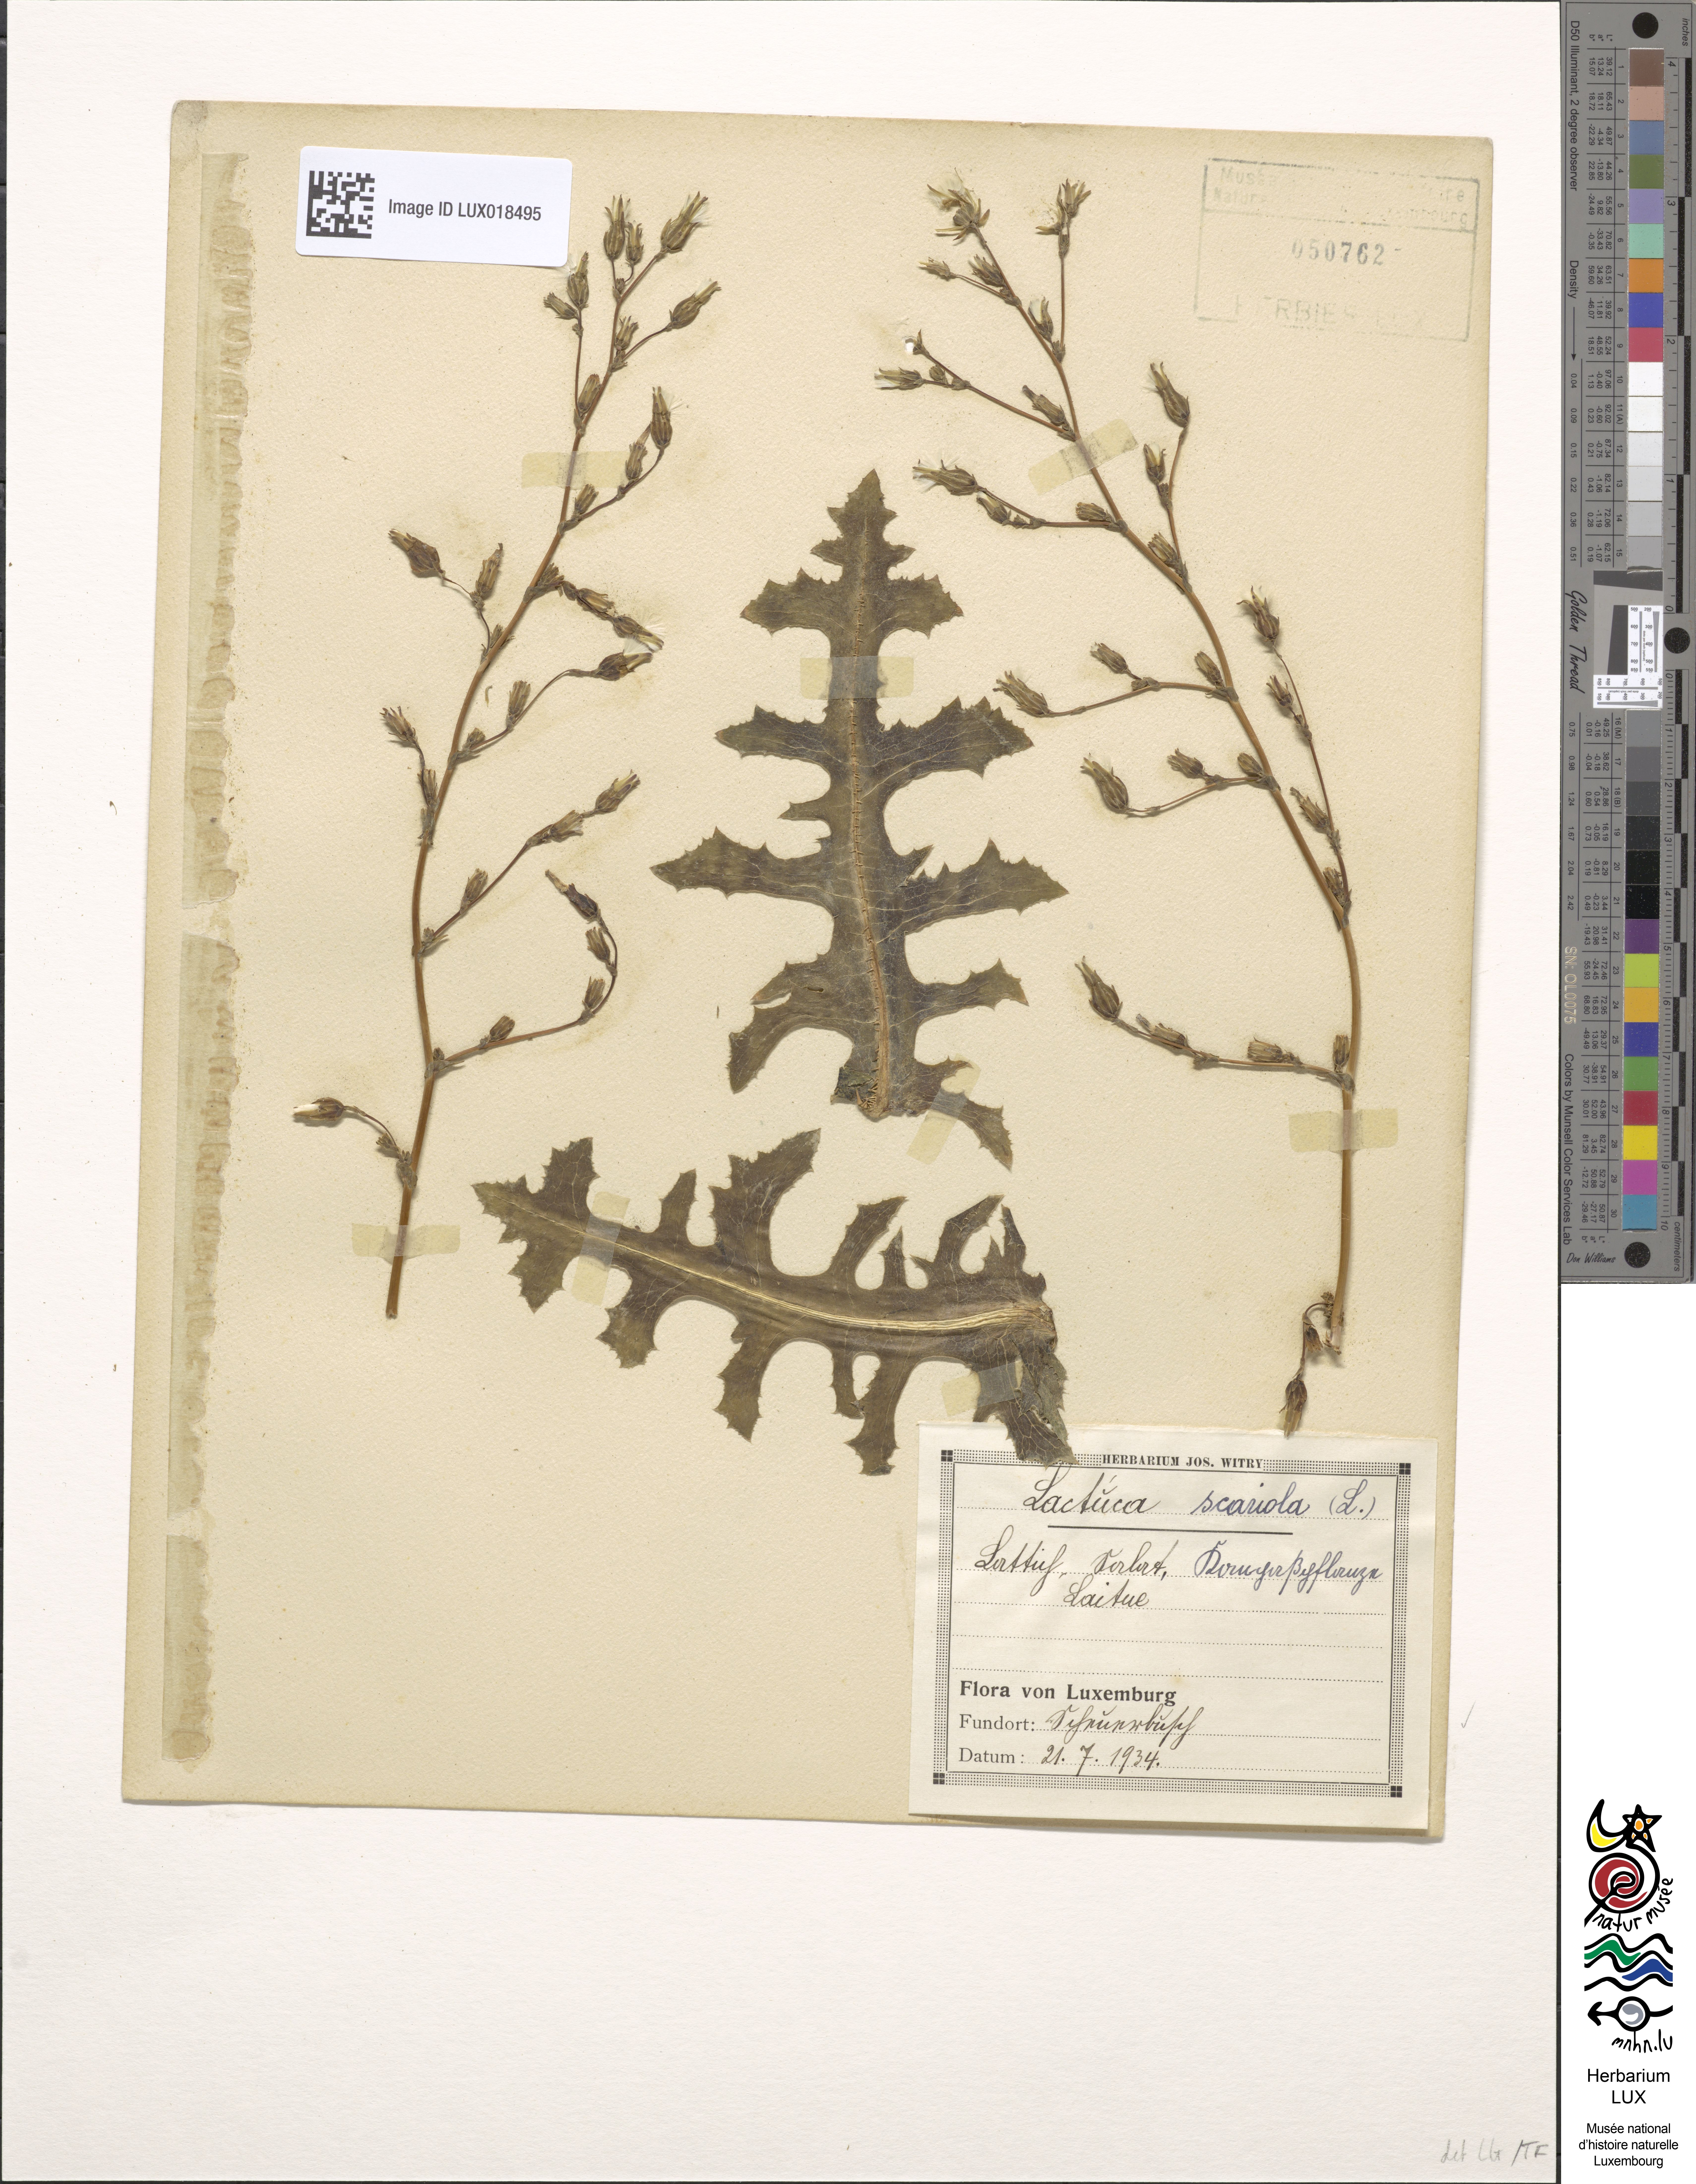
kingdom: Plantae
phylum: Tracheophyta
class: Magnoliopsida
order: Asterales
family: Asteraceae
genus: Lactuca
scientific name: Lactuca serriola
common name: Prickly lettuce
